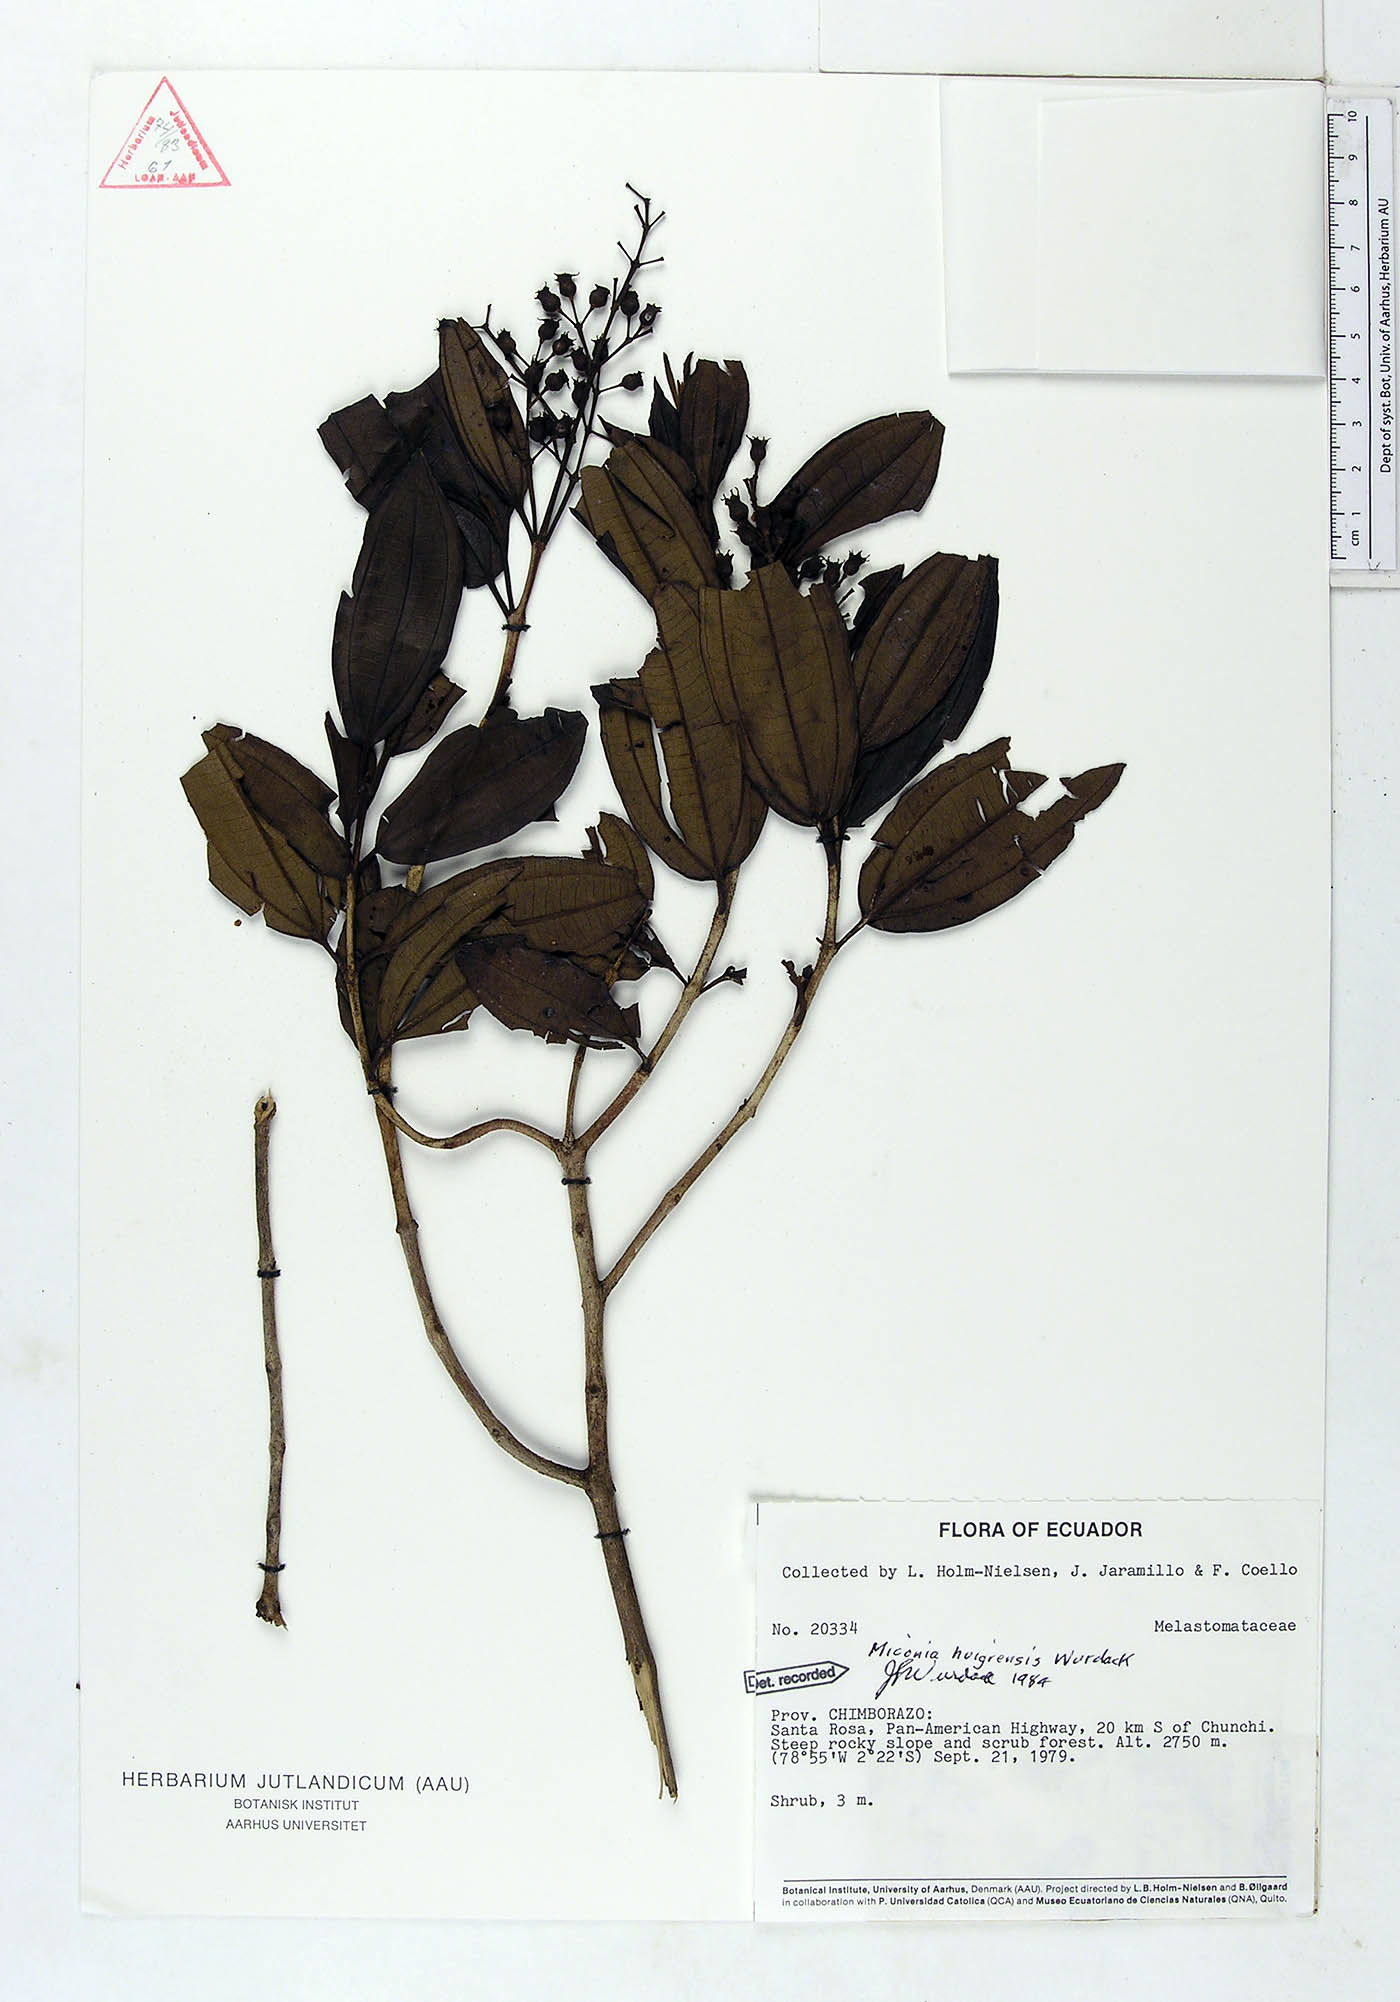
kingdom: Plantae
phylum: Tracheophyta
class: Magnoliopsida
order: Myrtales
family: Melastomataceae
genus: Miconia
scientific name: Miconia huigrensis
